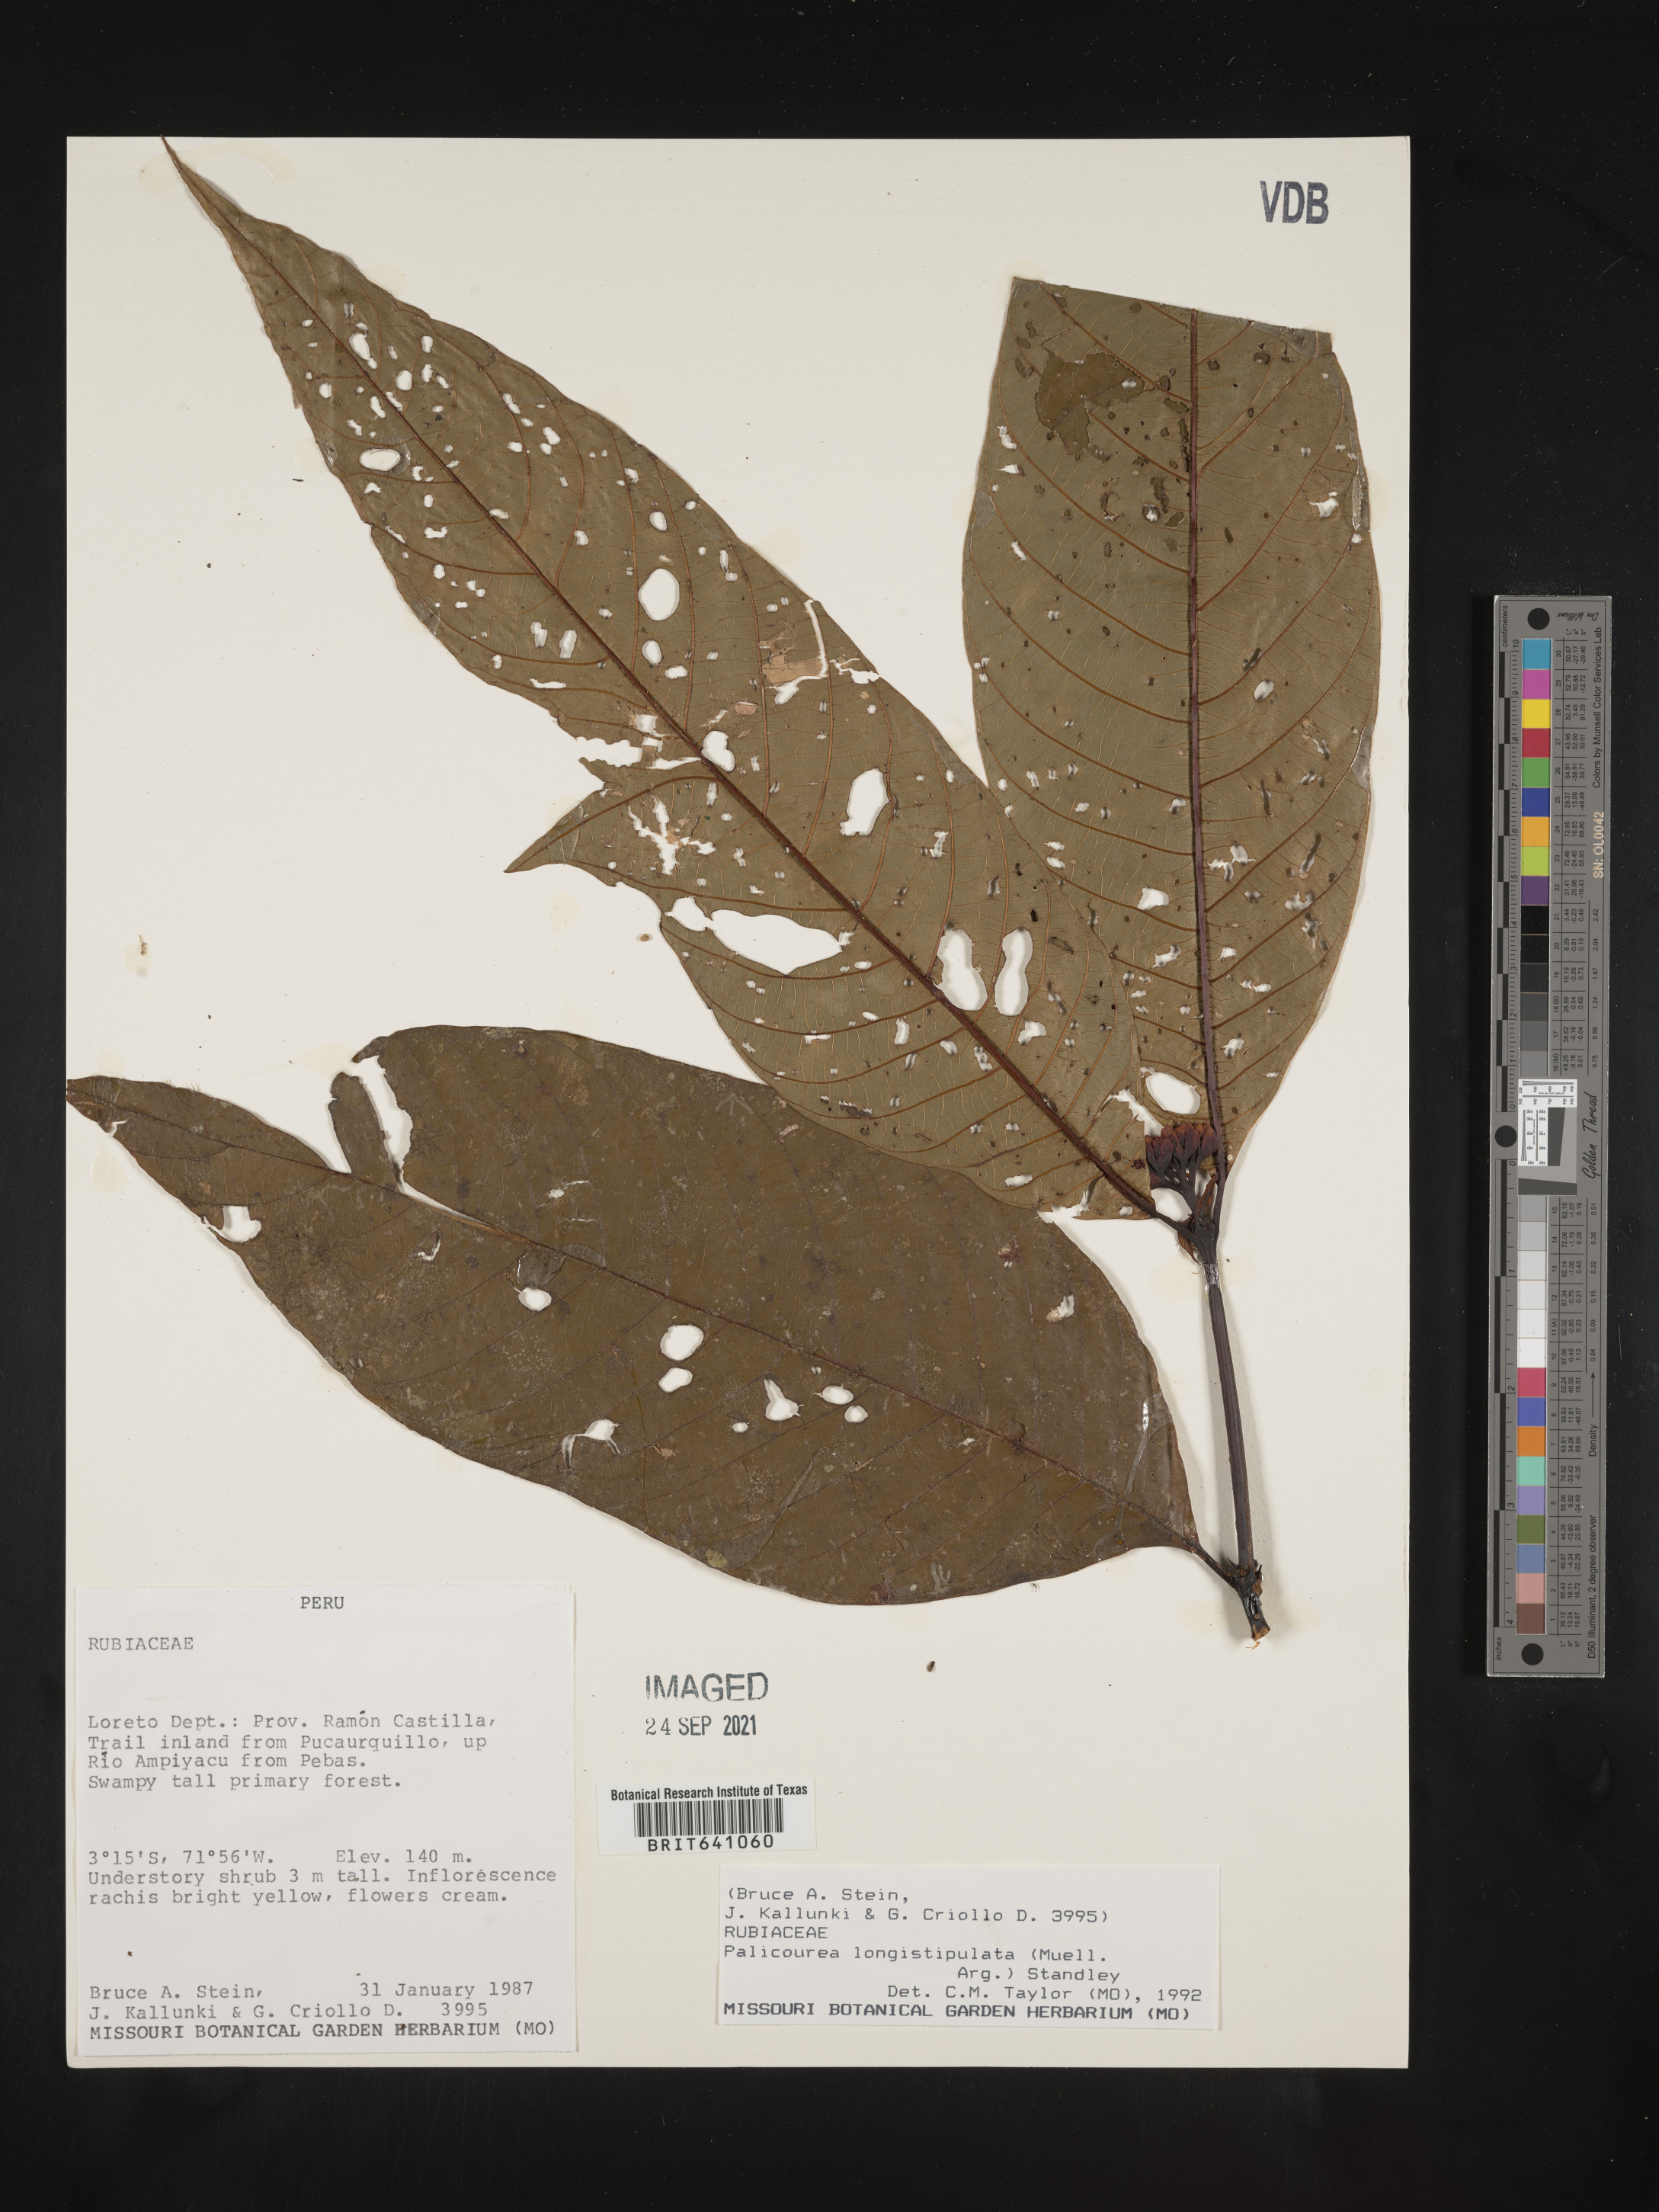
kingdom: Plantae
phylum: Tracheophyta
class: Magnoliopsida
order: Gentianales
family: Rubiaceae
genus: Palicourea
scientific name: Palicourea
